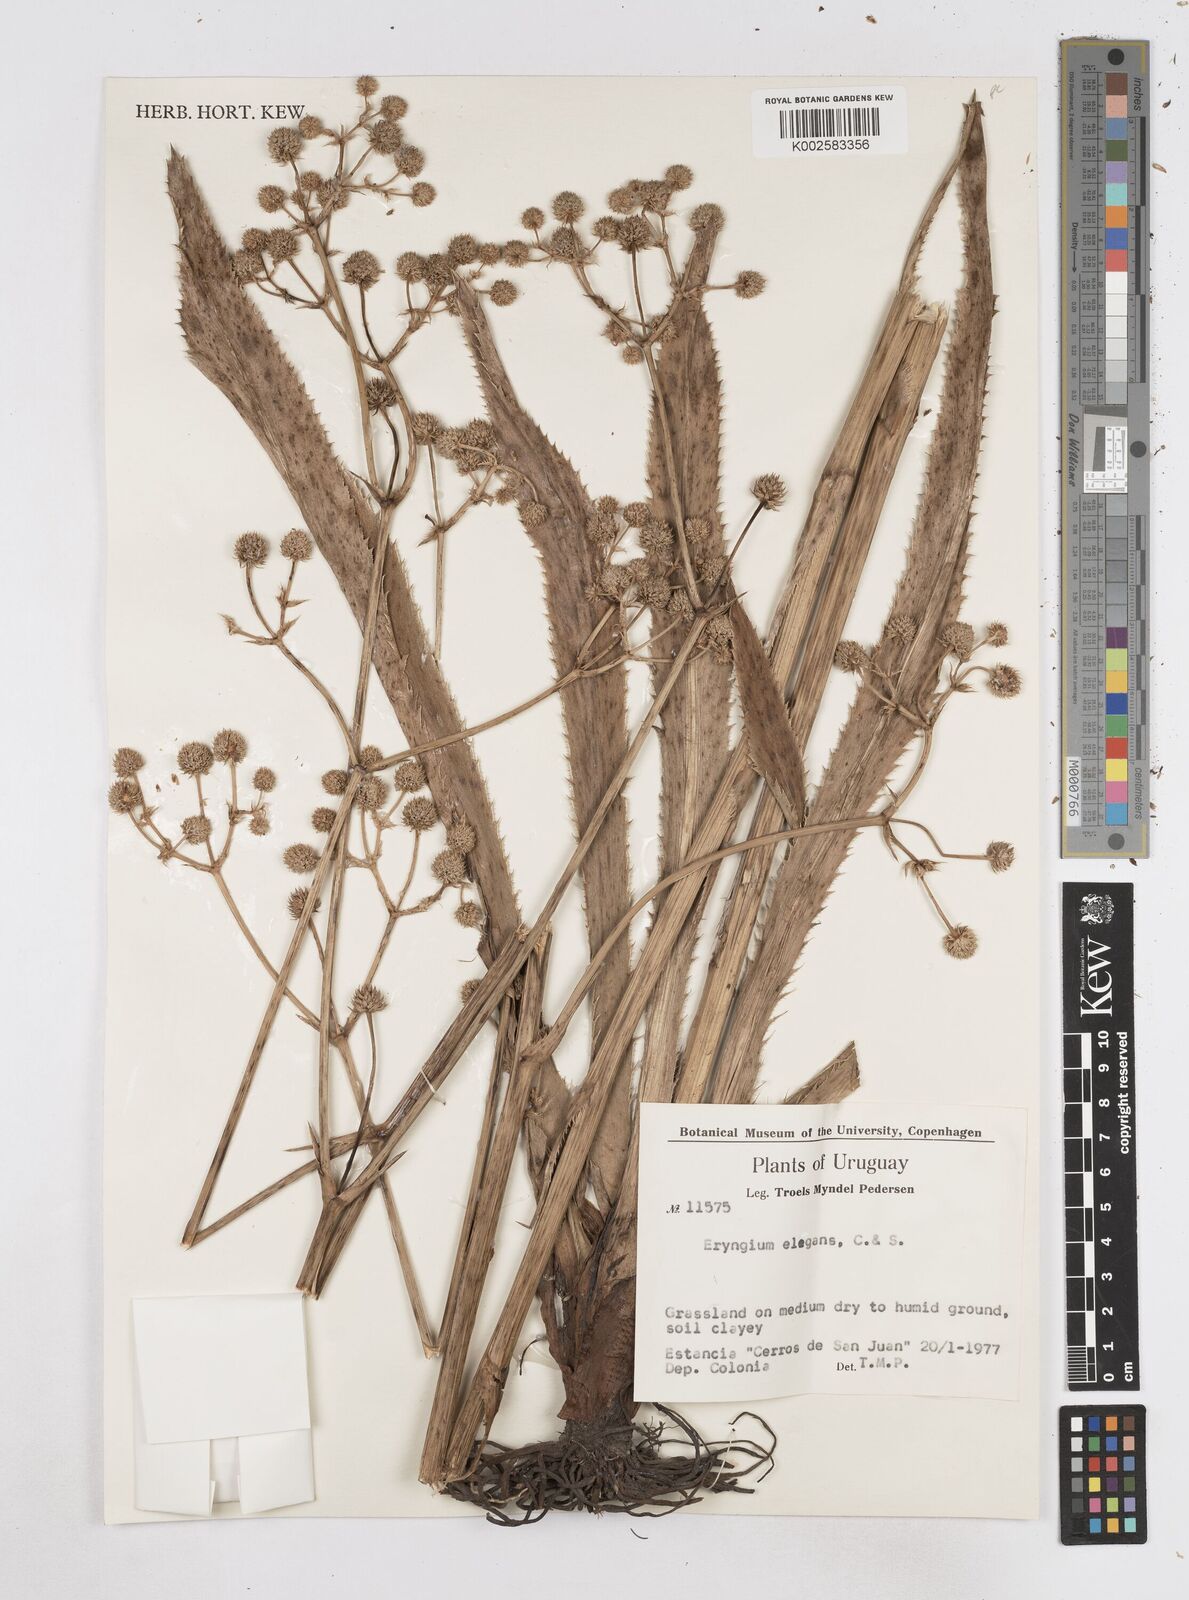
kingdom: Plantae
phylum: Tracheophyta
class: Magnoliopsida
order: Apiales
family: Apiaceae
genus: Eryngium
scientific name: Eryngium elegans
